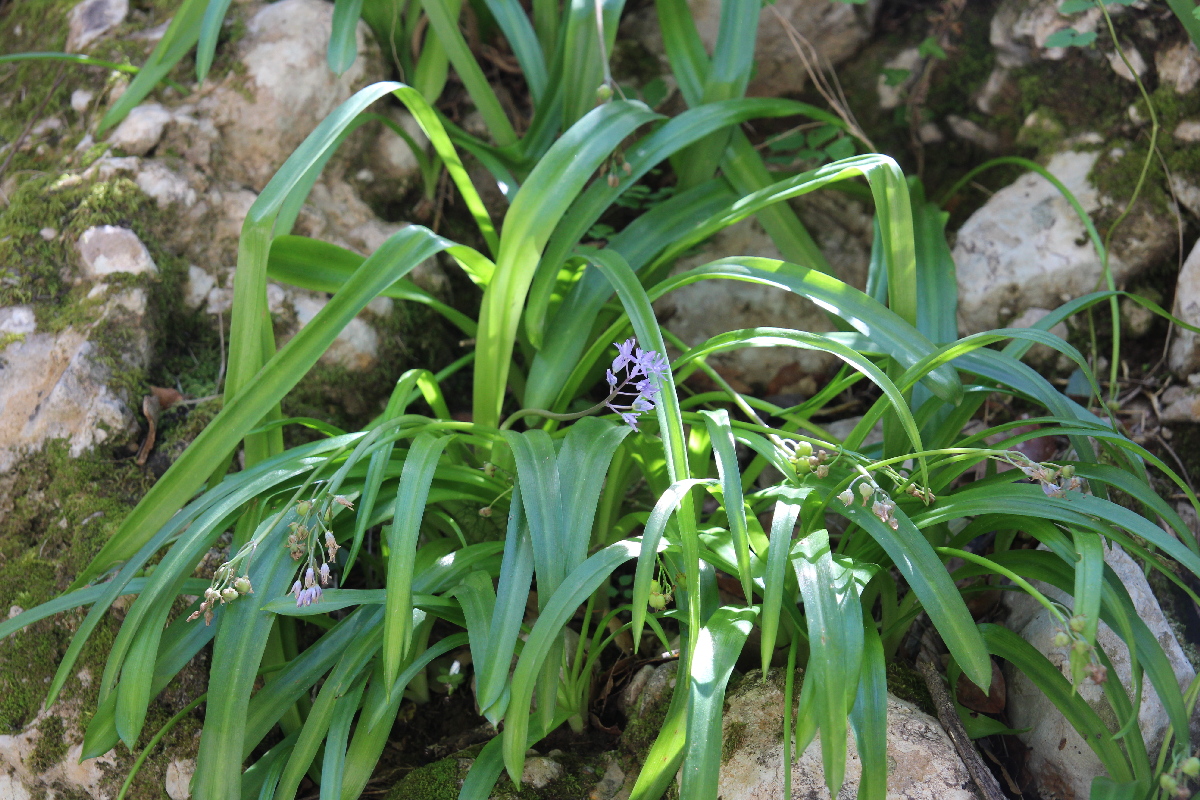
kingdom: Plantae
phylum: Tracheophyta
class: Liliopsida
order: Asparagales
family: Asparagaceae
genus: Scilla
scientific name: Scilla messeniaca
